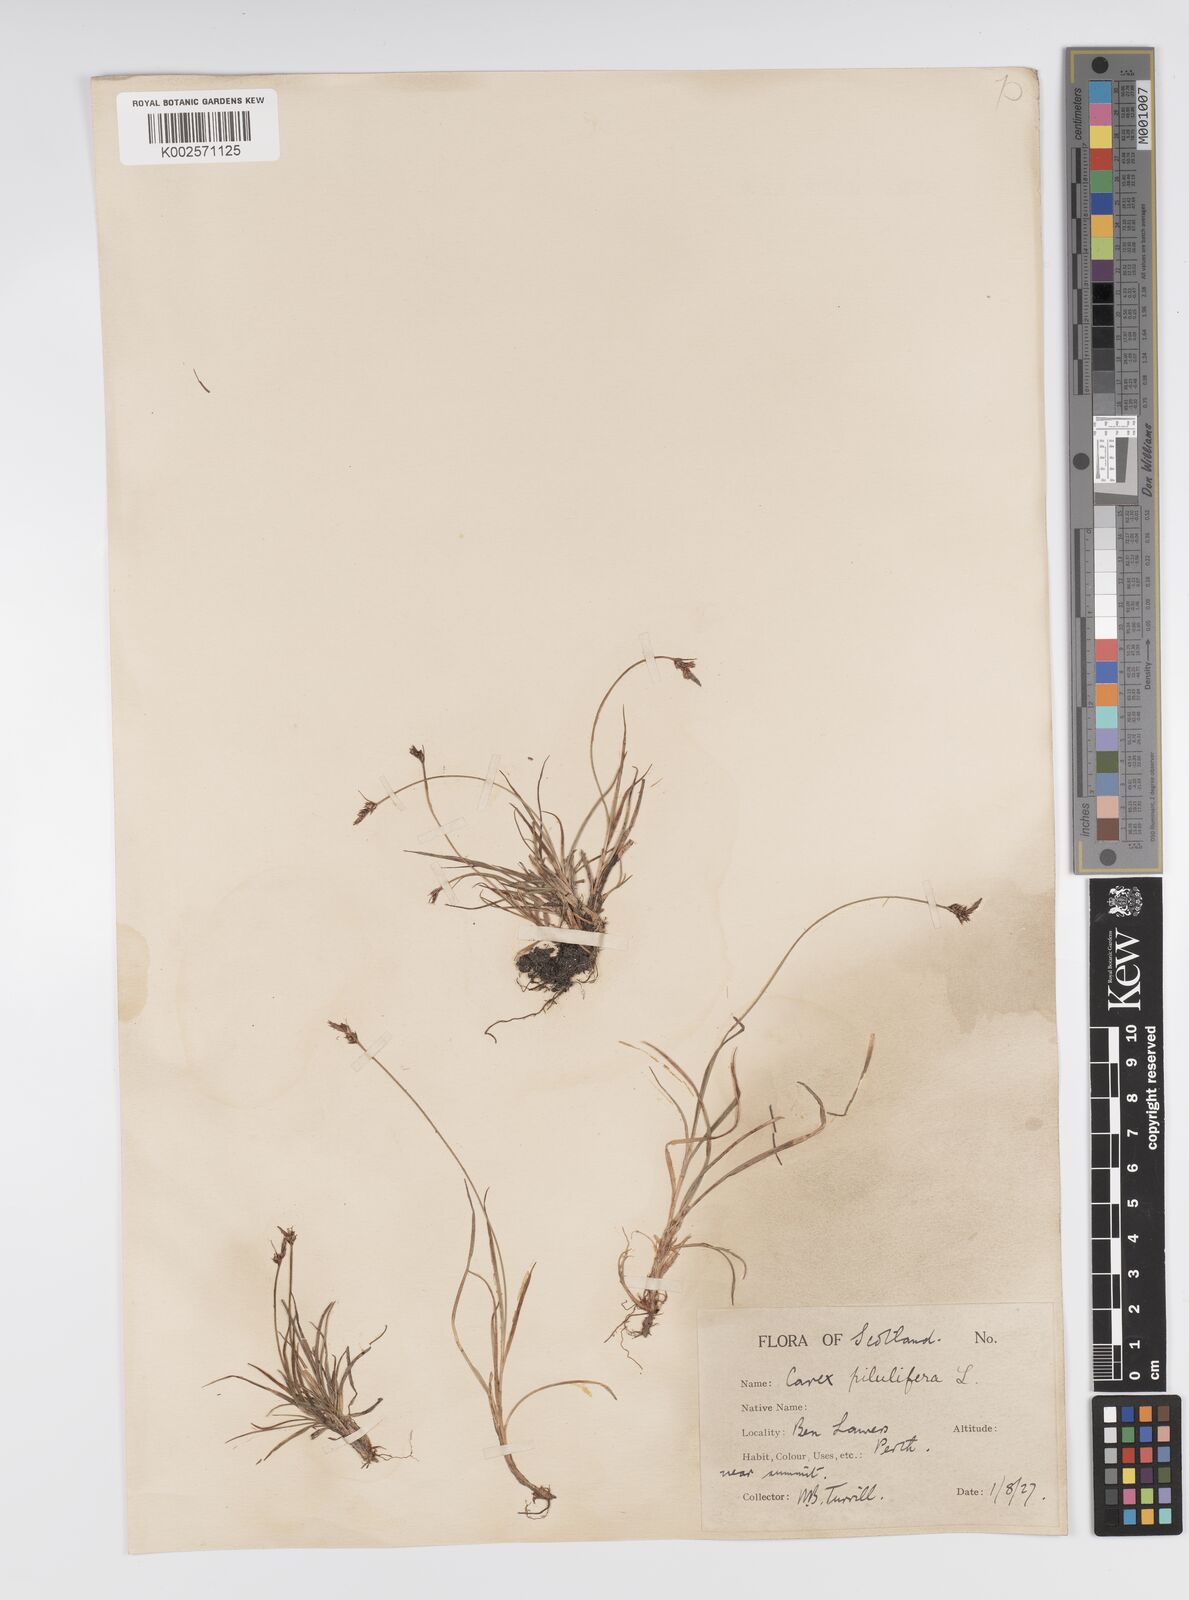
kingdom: Plantae
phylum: Tracheophyta
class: Liliopsida
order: Poales
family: Cyperaceae
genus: Carex
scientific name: Carex pilulifera
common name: Pill sedge
